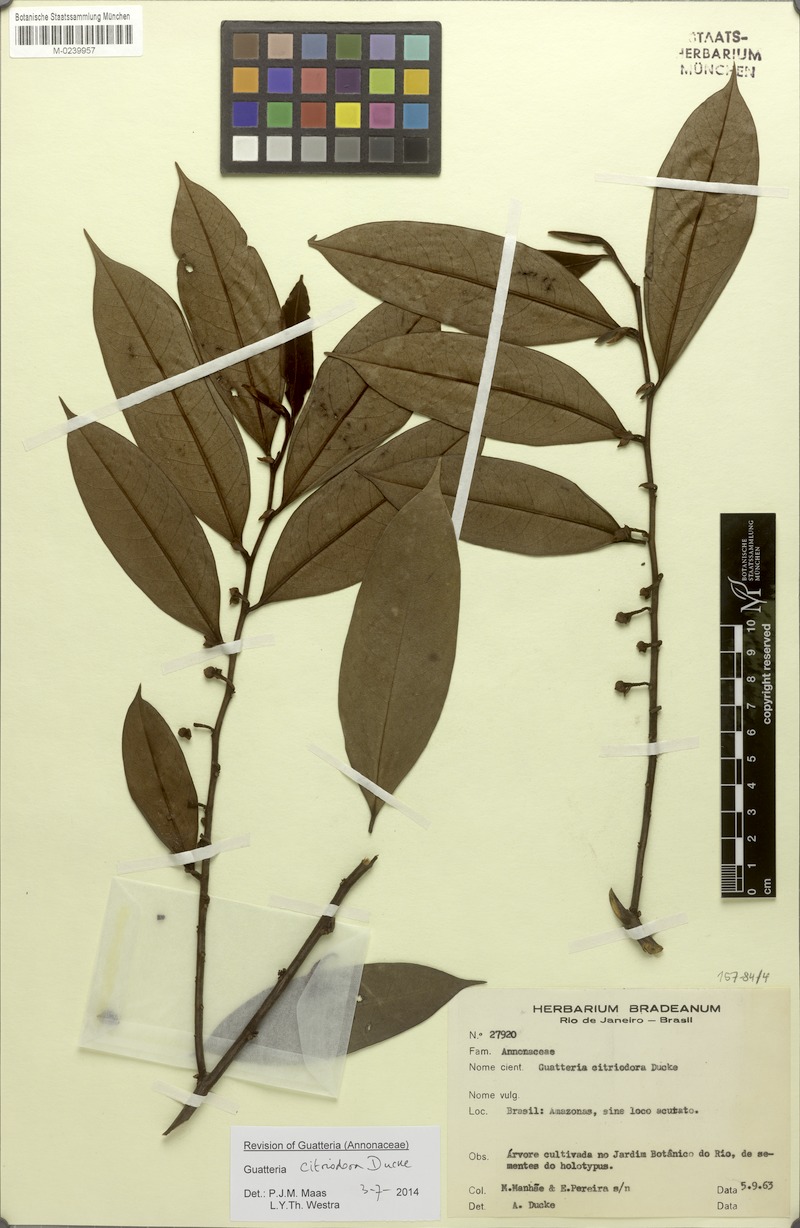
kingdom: Plantae
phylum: Tracheophyta
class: Magnoliopsida
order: Magnoliales
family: Annonaceae
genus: Guatteria
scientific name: Guatteria citriodora
